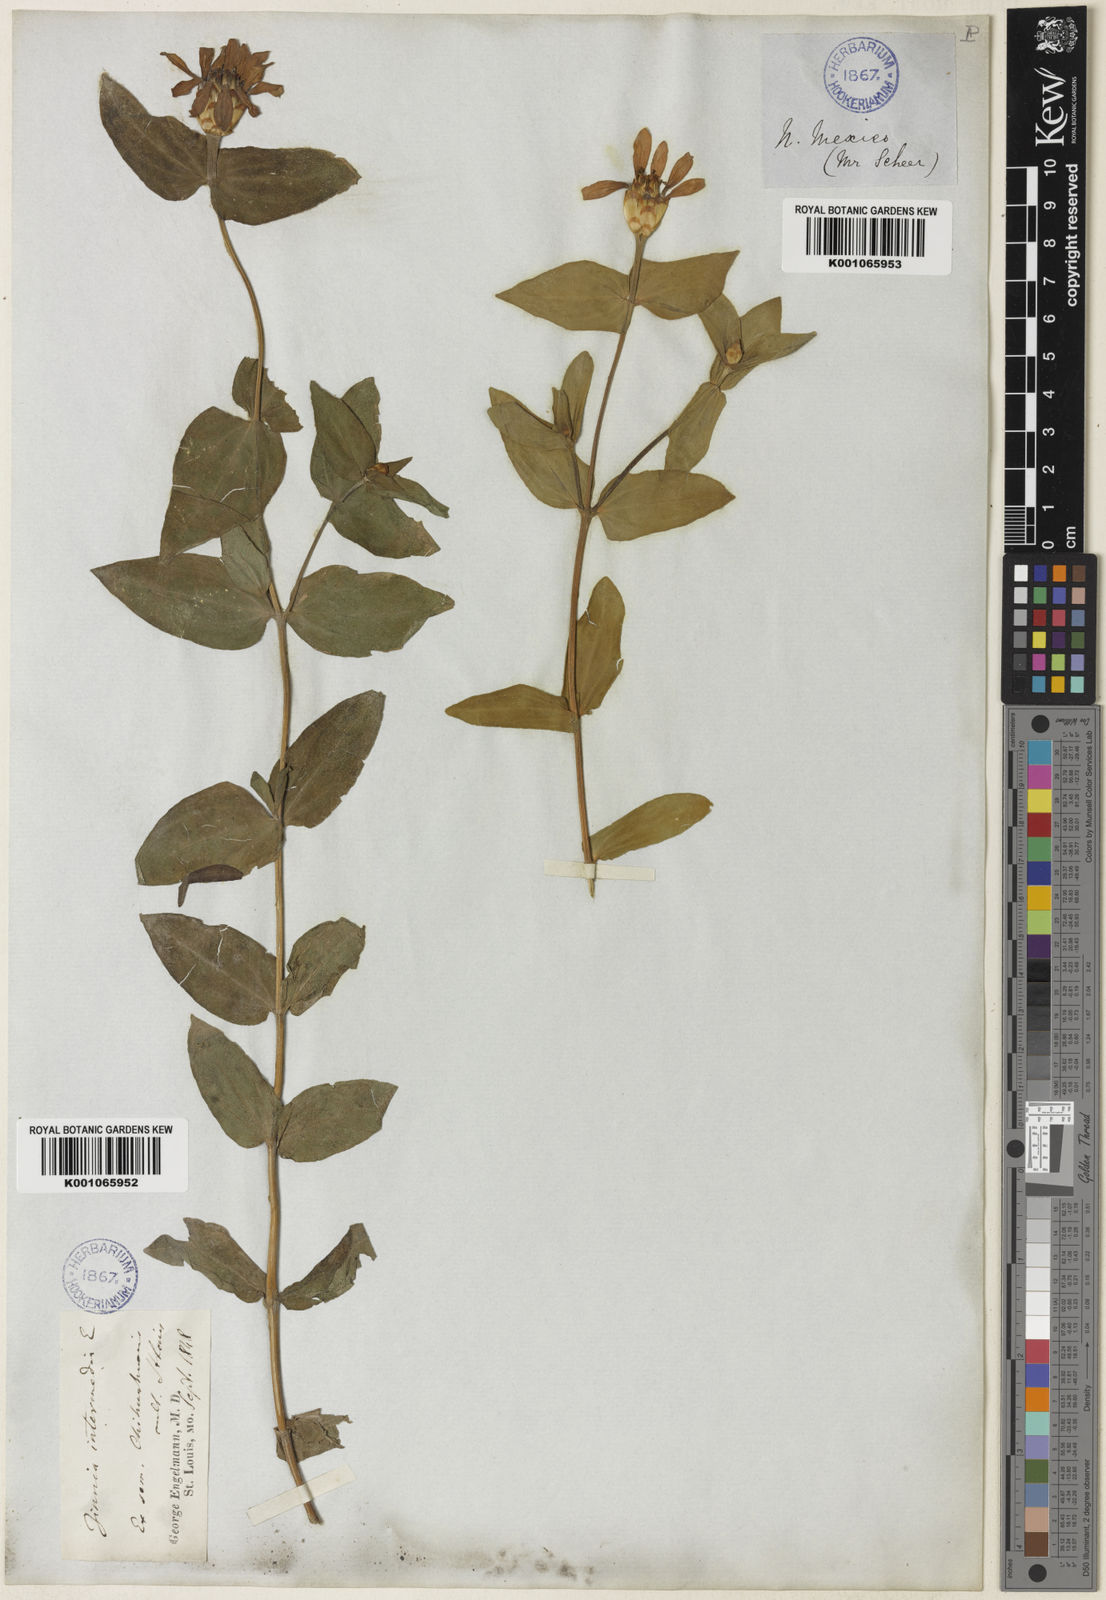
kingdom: Plantae
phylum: Tracheophyta
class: Magnoliopsida
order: Asterales
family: Asteraceae
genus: Zinnia
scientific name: Zinnia peruviana
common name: Peruvian zinnia
